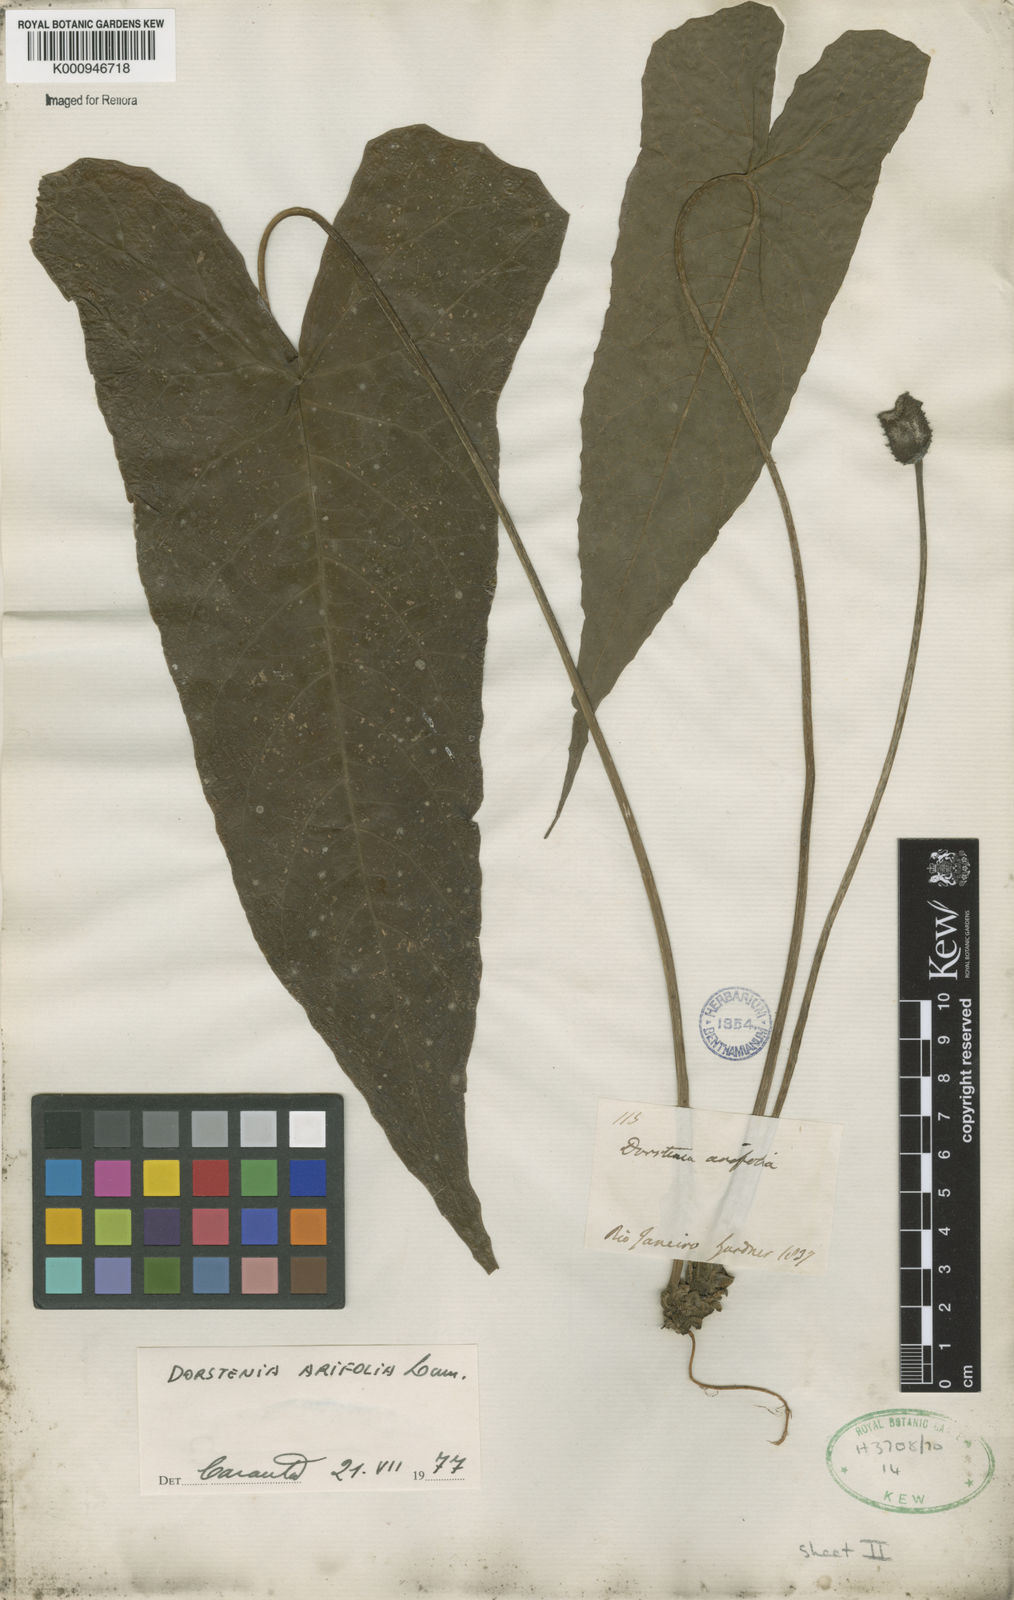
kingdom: Plantae
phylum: Tracheophyta
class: Magnoliopsida
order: Rosales
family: Moraceae
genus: Dorstenia
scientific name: Dorstenia arifolia
